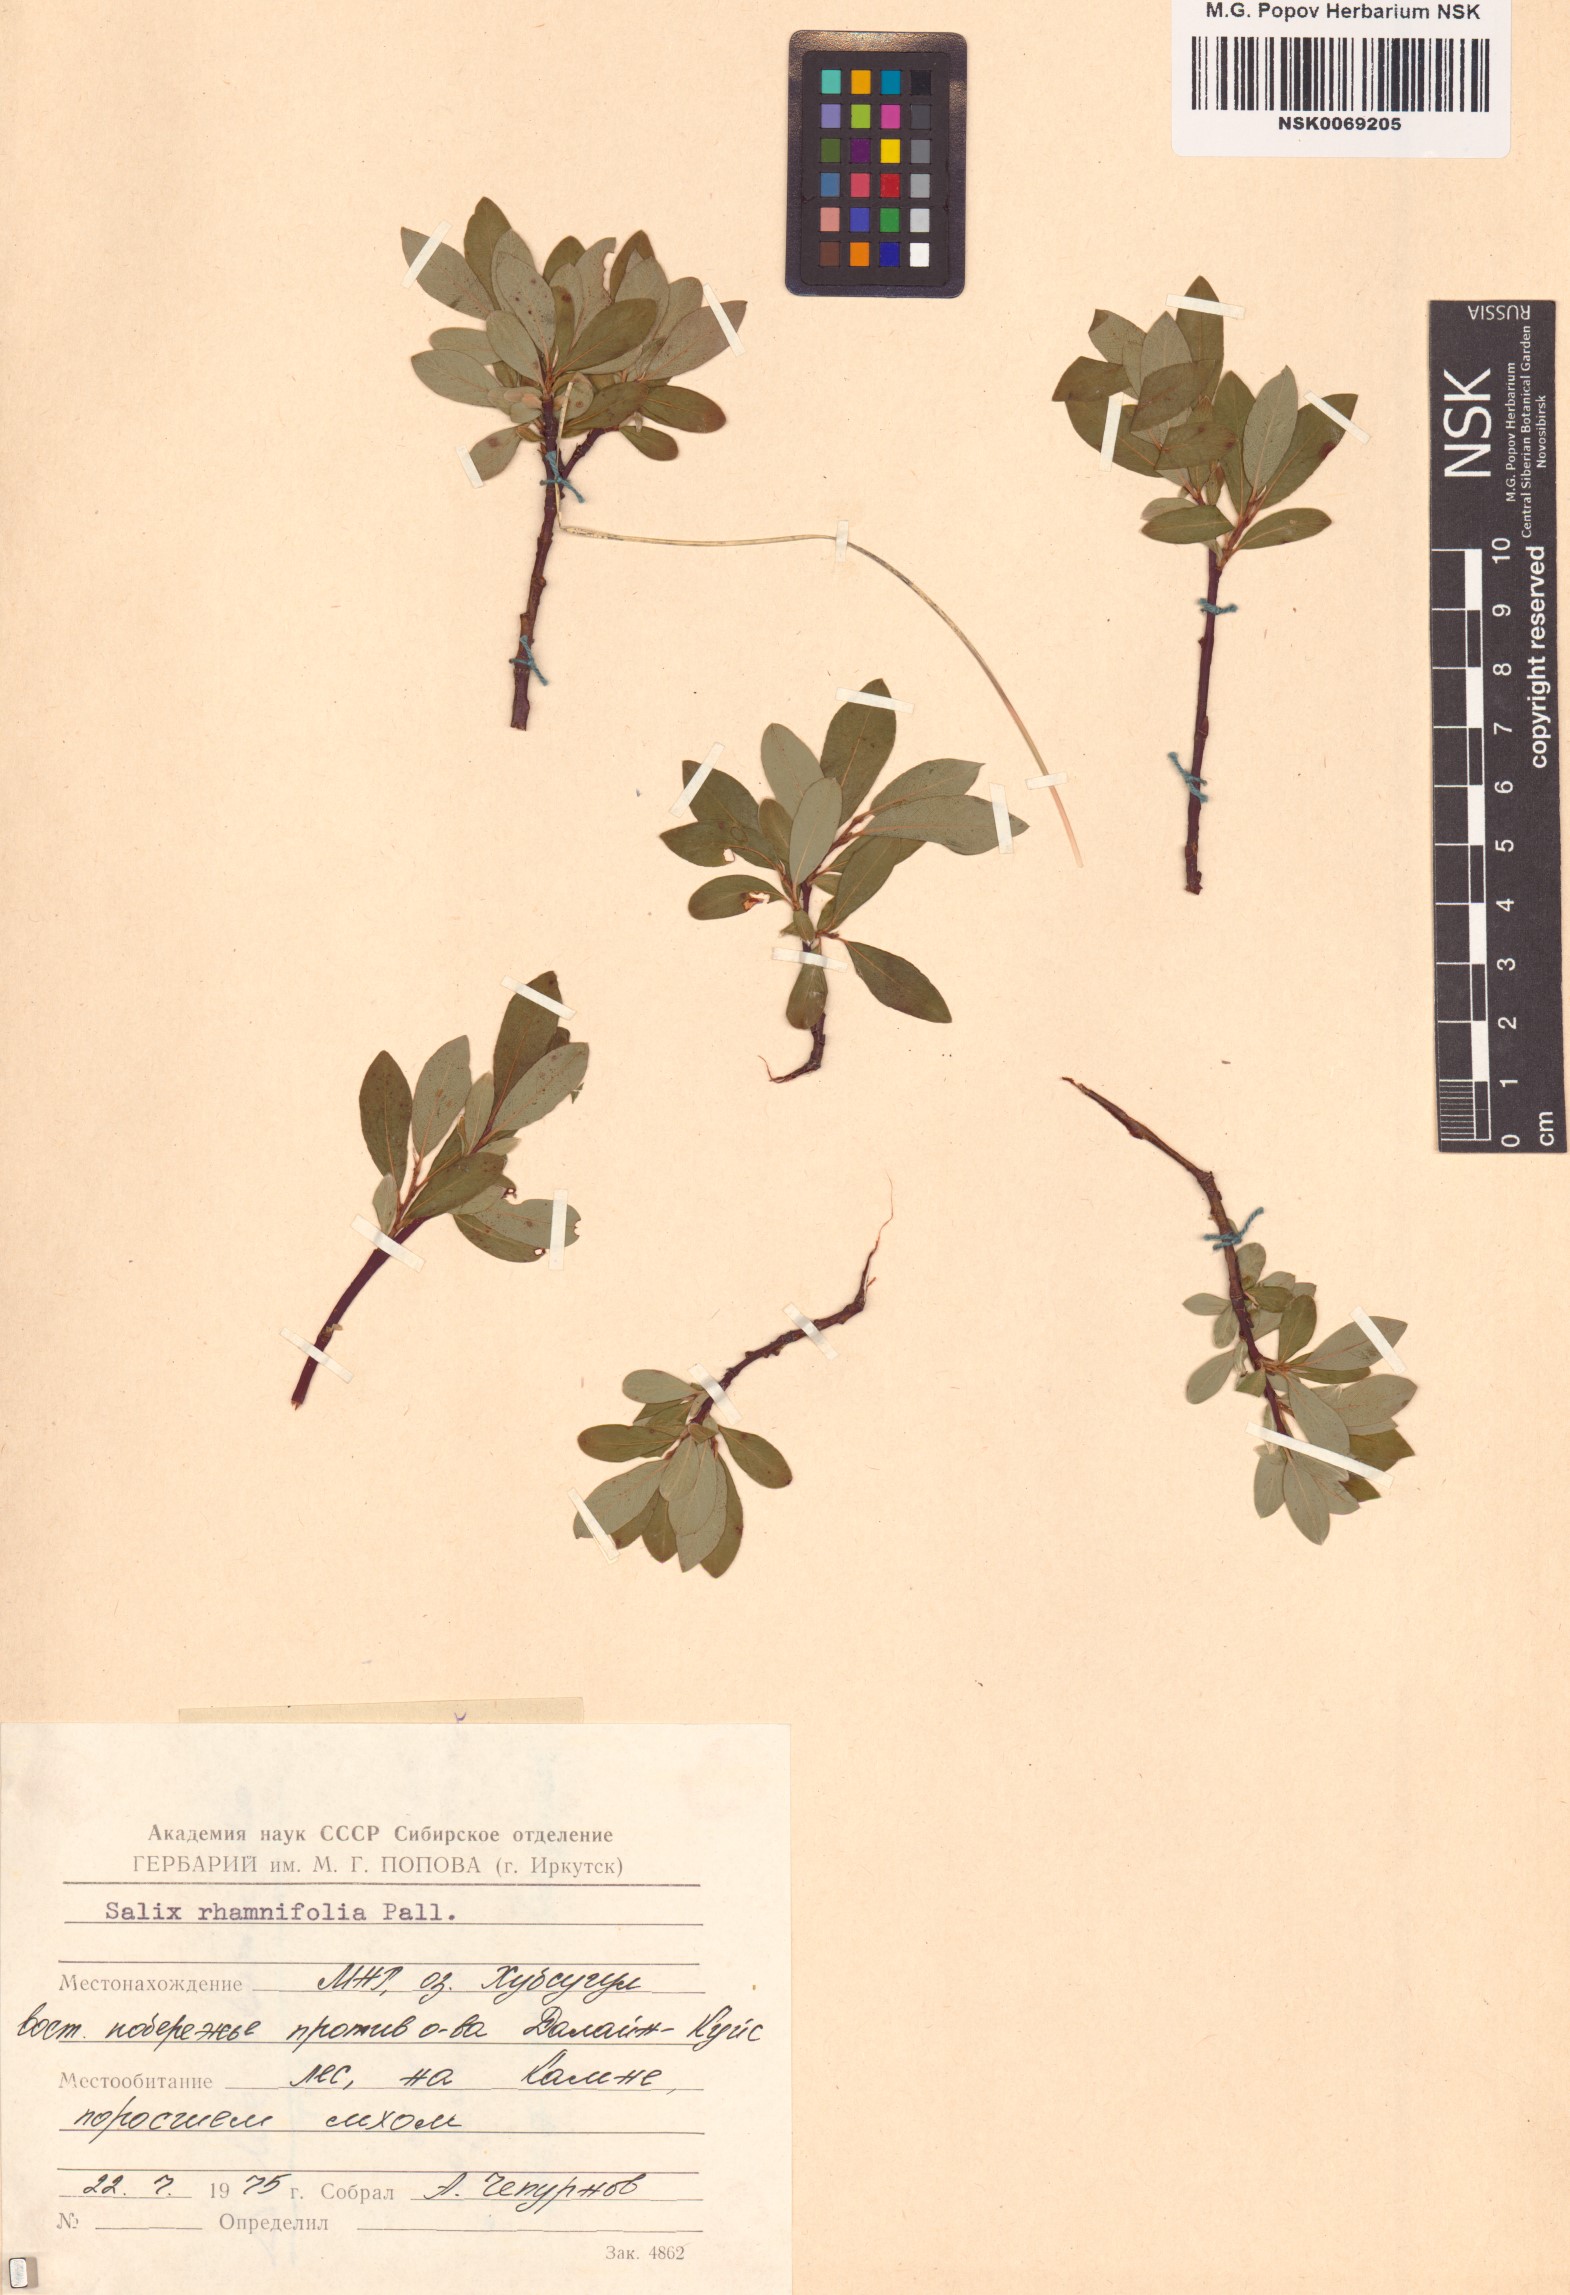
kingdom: Plantae
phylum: Tracheophyta
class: Magnoliopsida
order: Malpighiales
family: Salicaceae
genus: Salix
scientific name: Salix rhamnifolia
